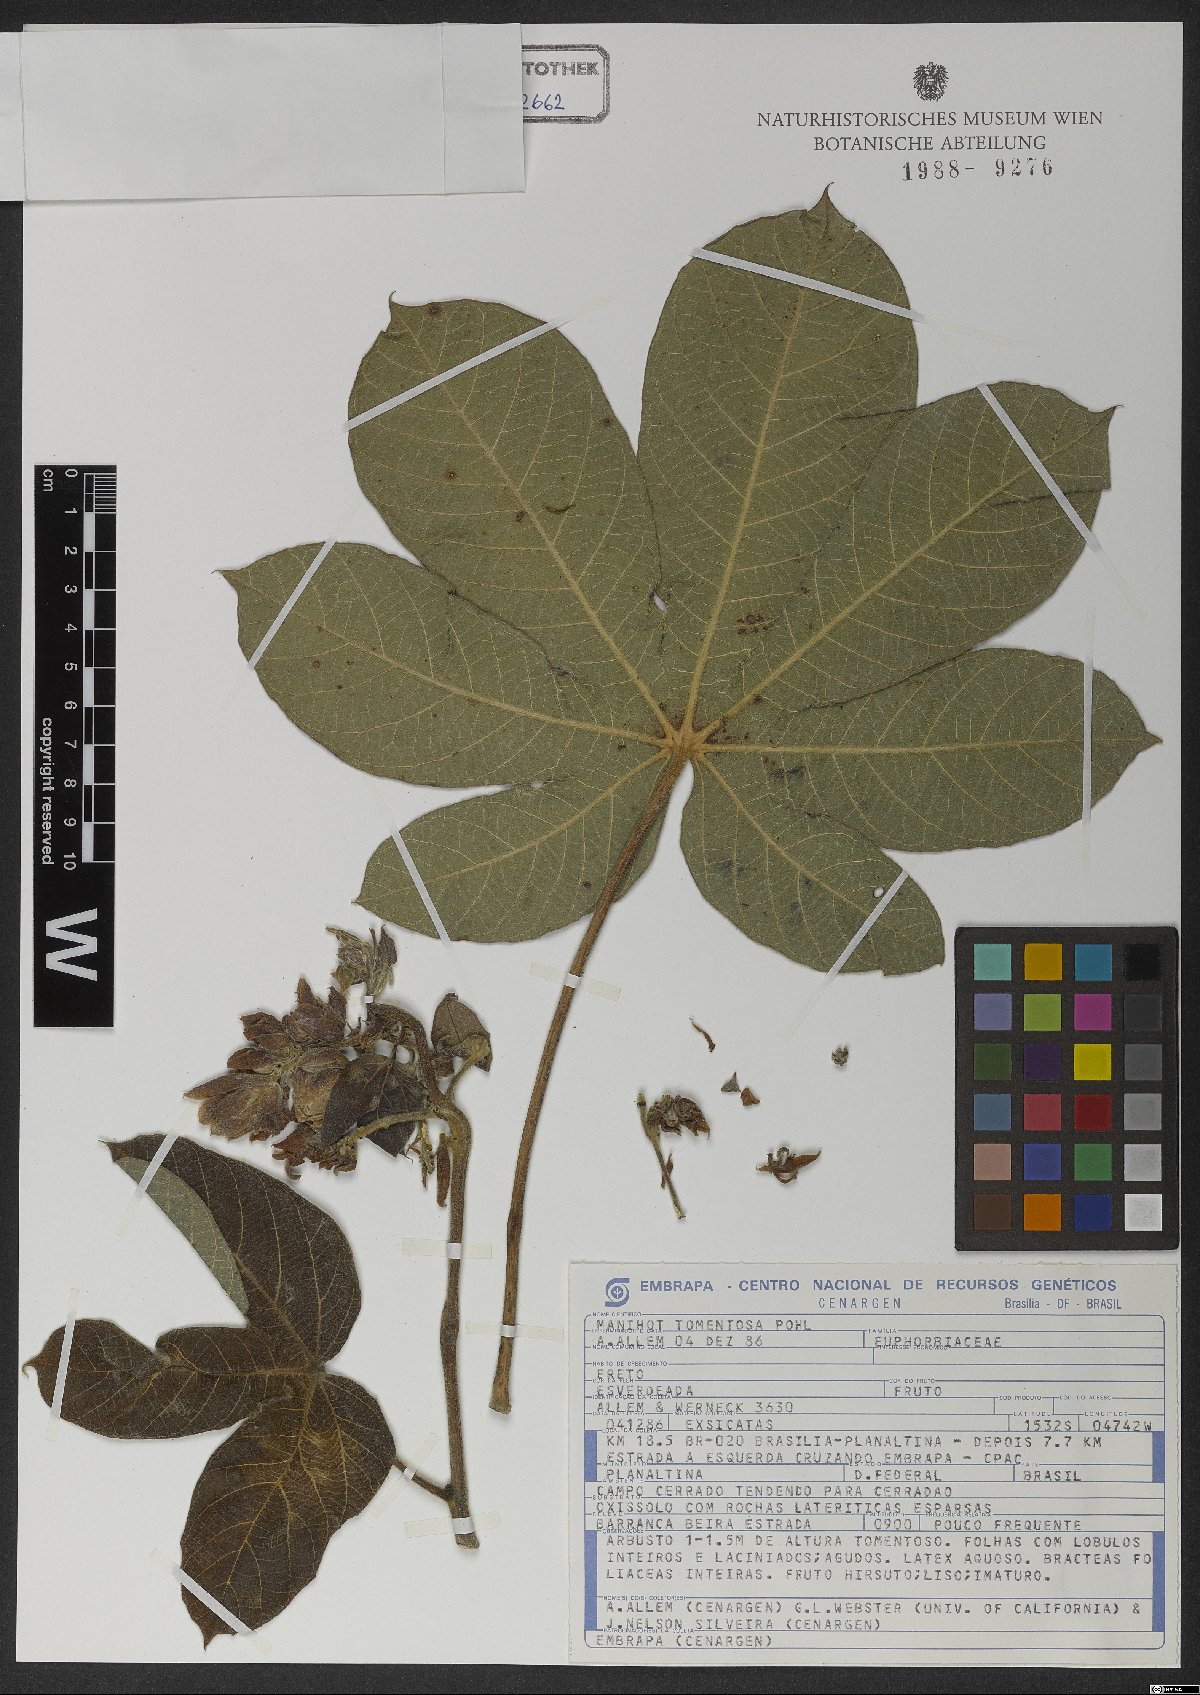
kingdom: Plantae
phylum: Tracheophyta
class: Magnoliopsida
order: Malpighiales
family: Euphorbiaceae
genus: Manihot
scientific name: Manihot tomentosa
